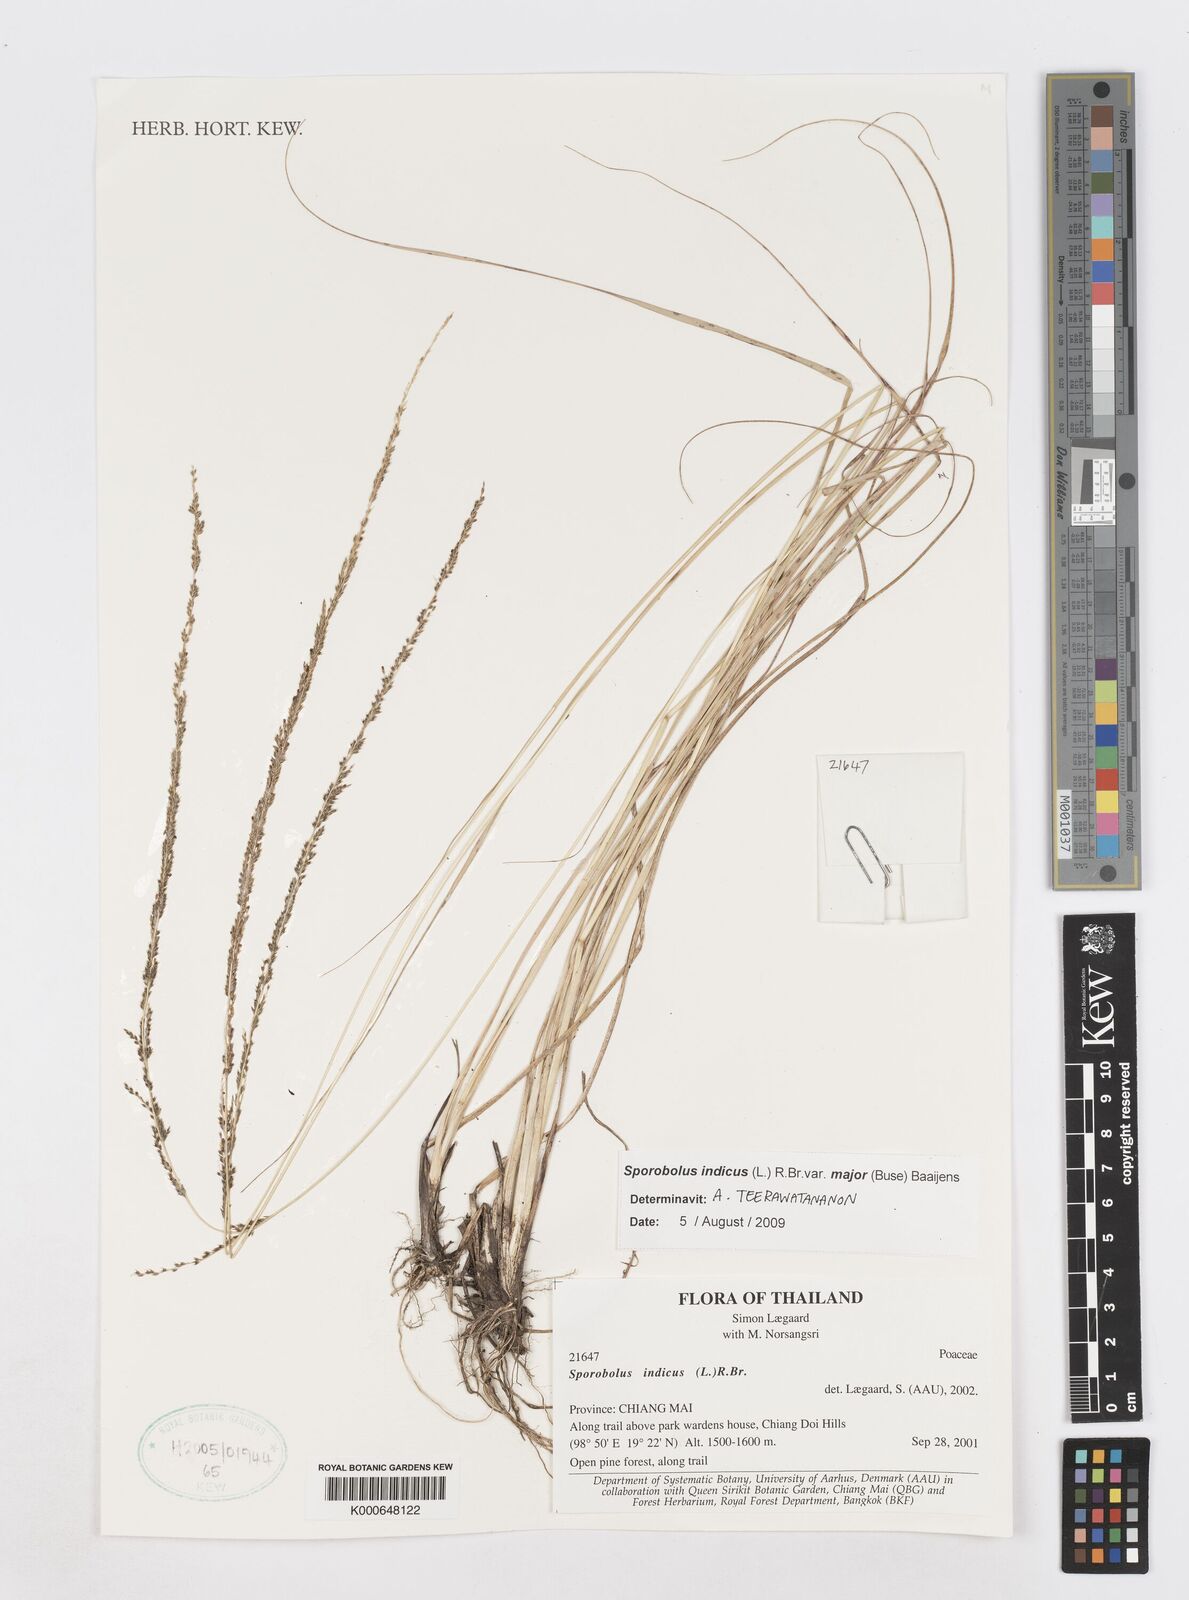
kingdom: Plantae
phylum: Tracheophyta
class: Liliopsida
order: Poales
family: Poaceae
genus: Sporobolus
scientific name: Sporobolus fertilis
